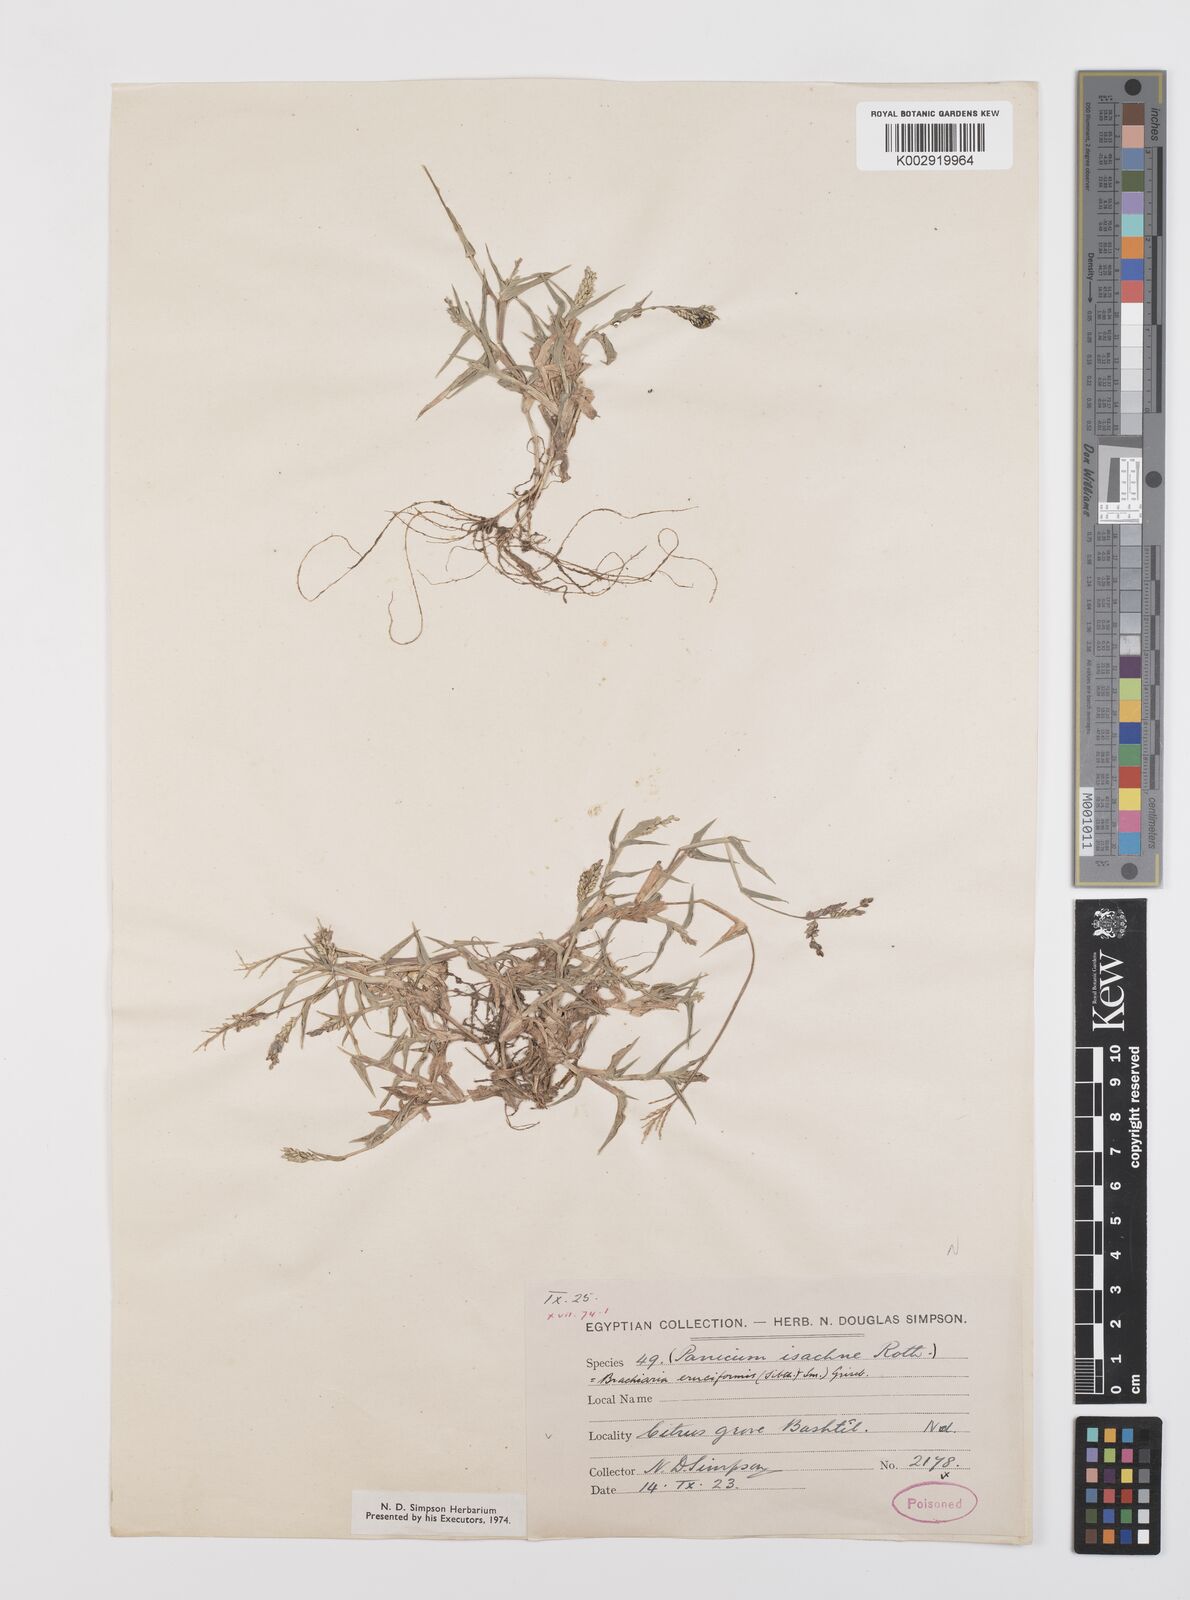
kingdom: Plantae
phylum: Tracheophyta
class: Liliopsida
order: Poales
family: Poaceae
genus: Urochloa
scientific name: Urochloa reptans
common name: Sprawling signalgrass
